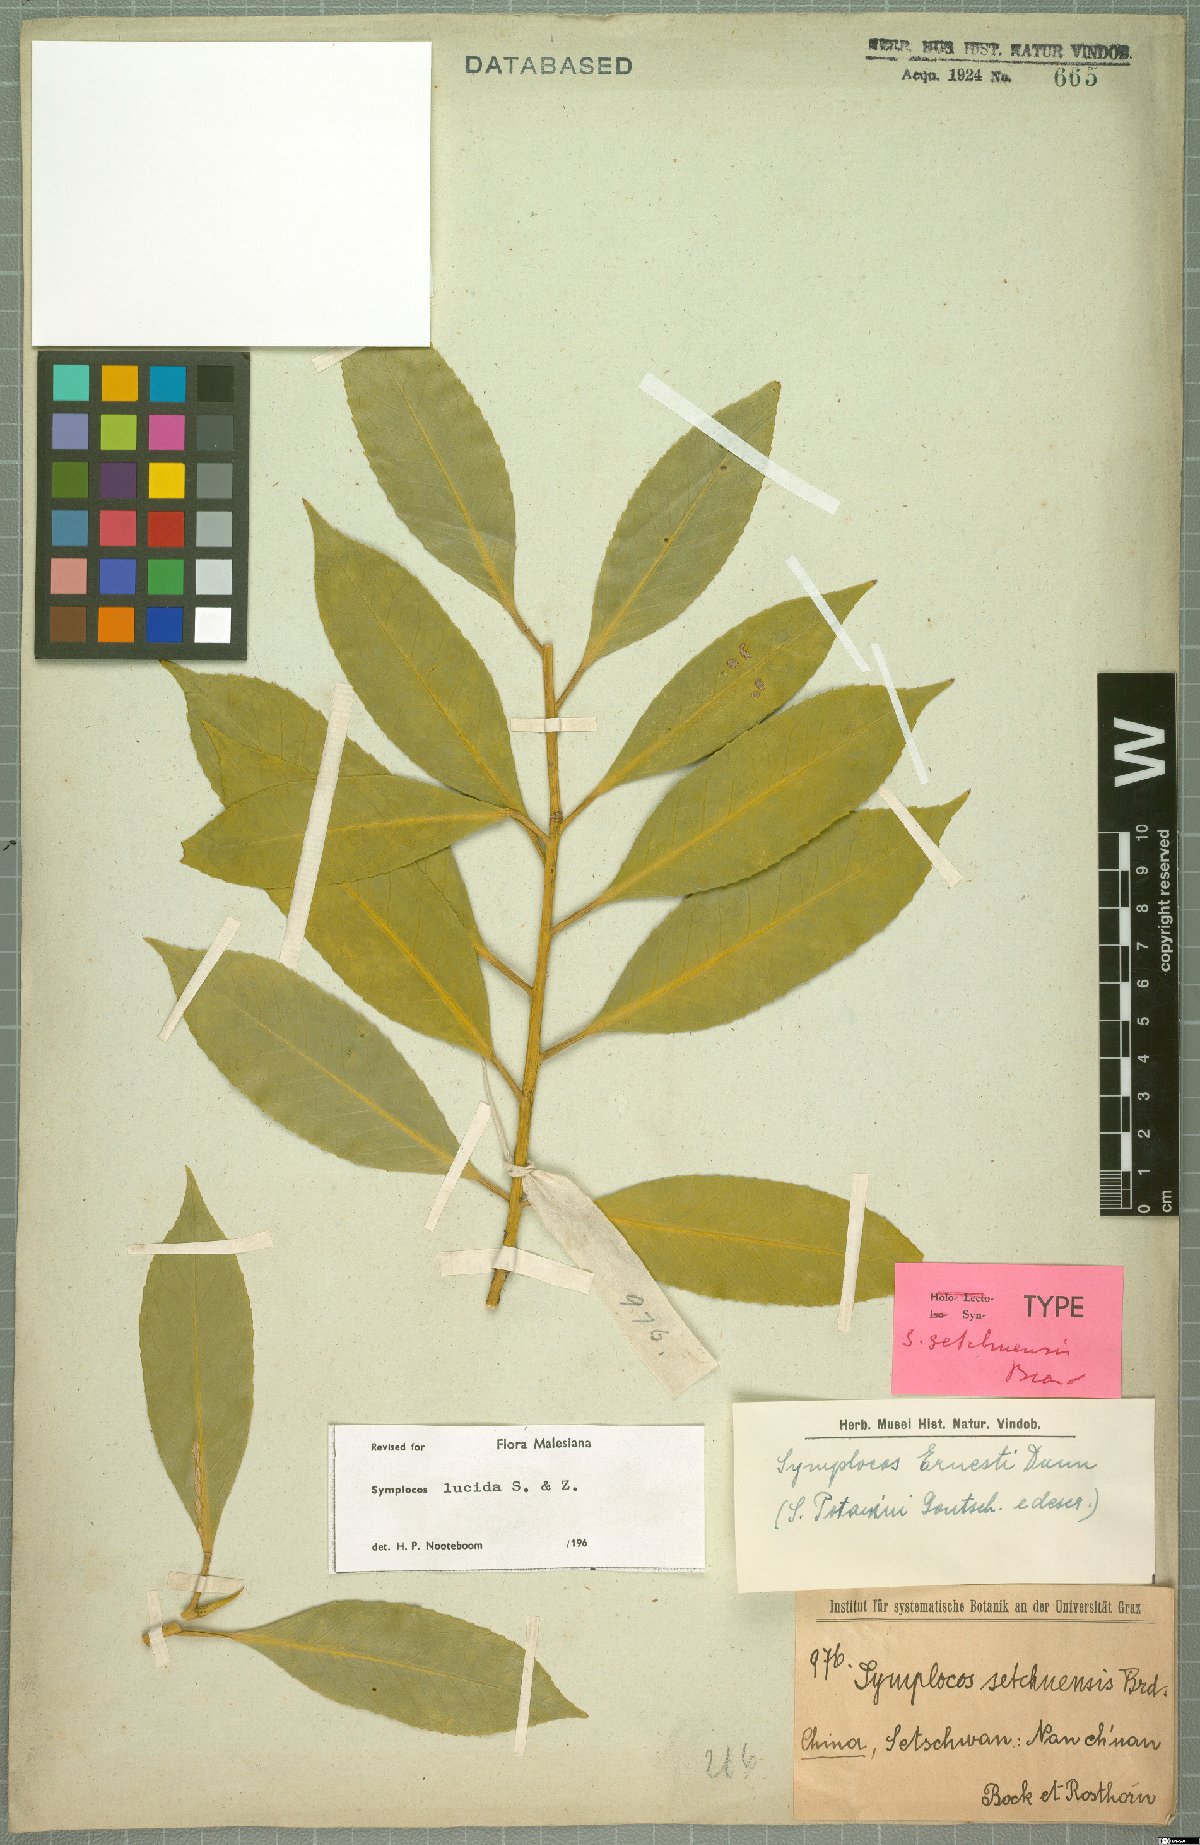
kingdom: Plantae
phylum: Tracheophyta
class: Magnoliopsida
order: Ericales
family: Symplocaceae
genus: Symplocos
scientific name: Symplocos nakaharae
